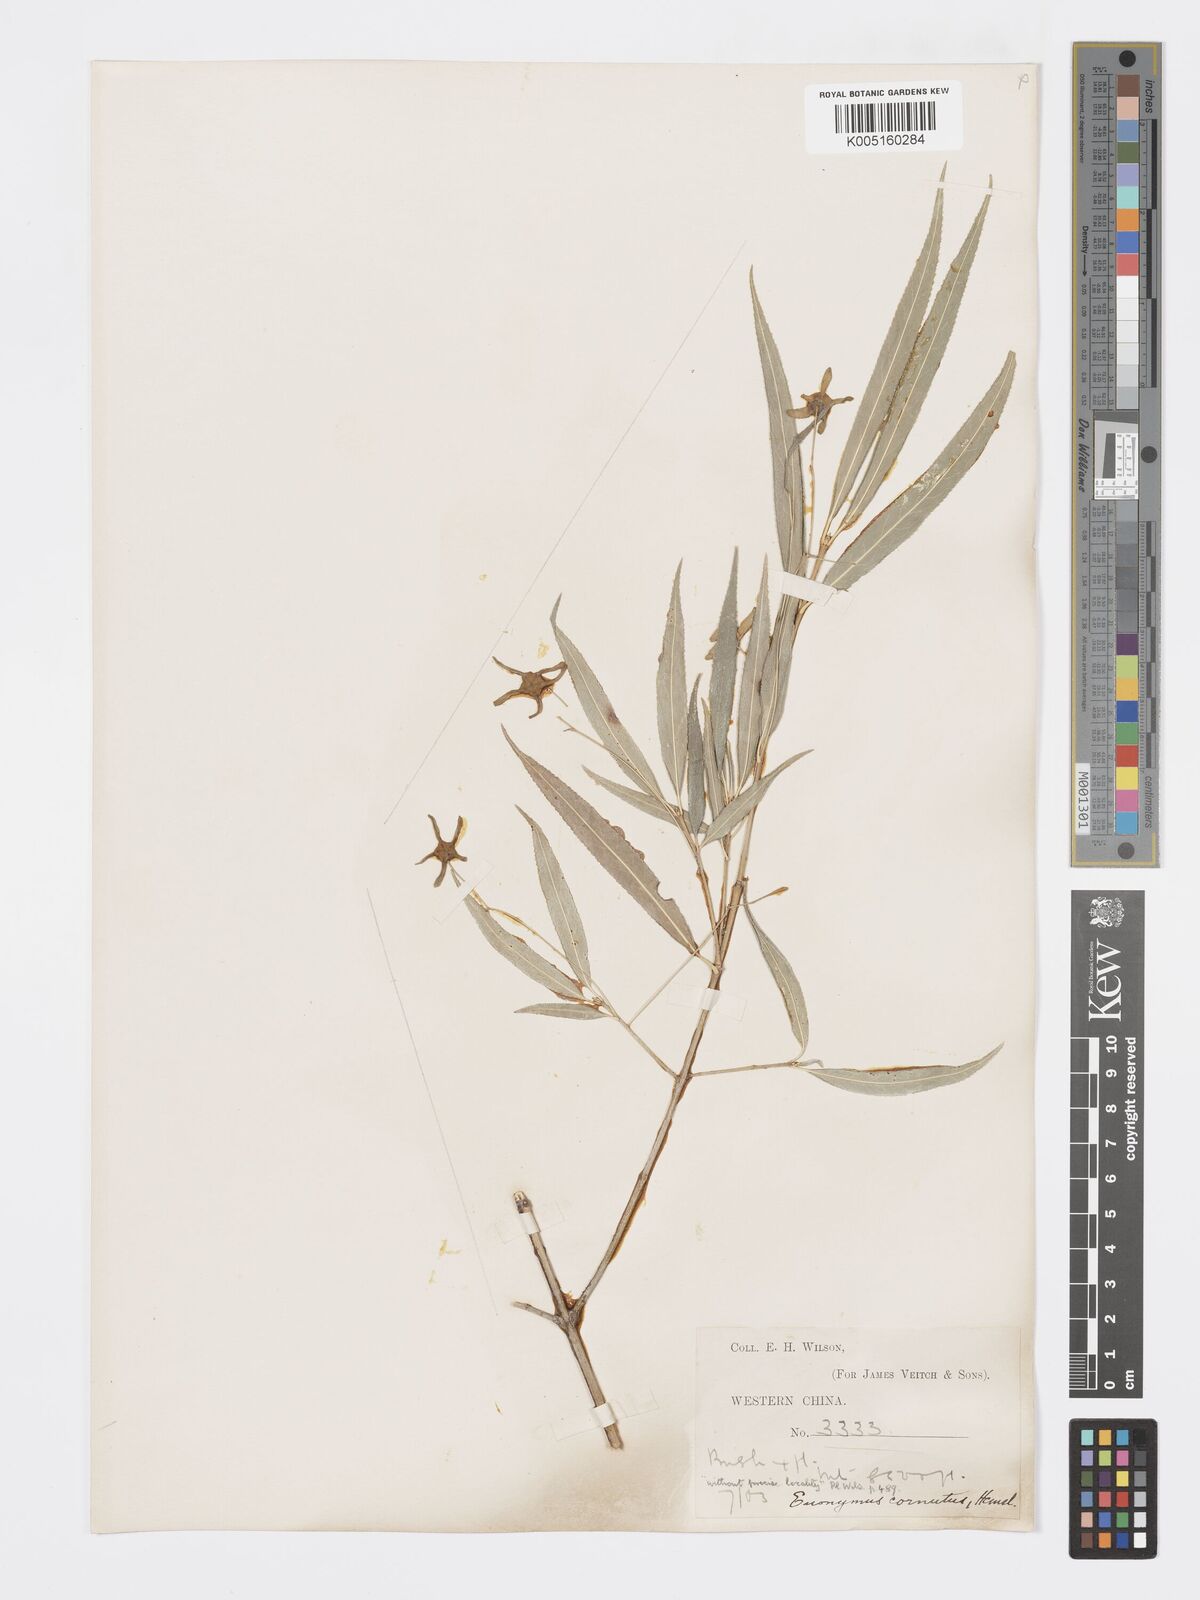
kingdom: Plantae
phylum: Tracheophyta
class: Magnoliopsida
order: Celastrales
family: Celastraceae
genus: Euonymus
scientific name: Euonymus
